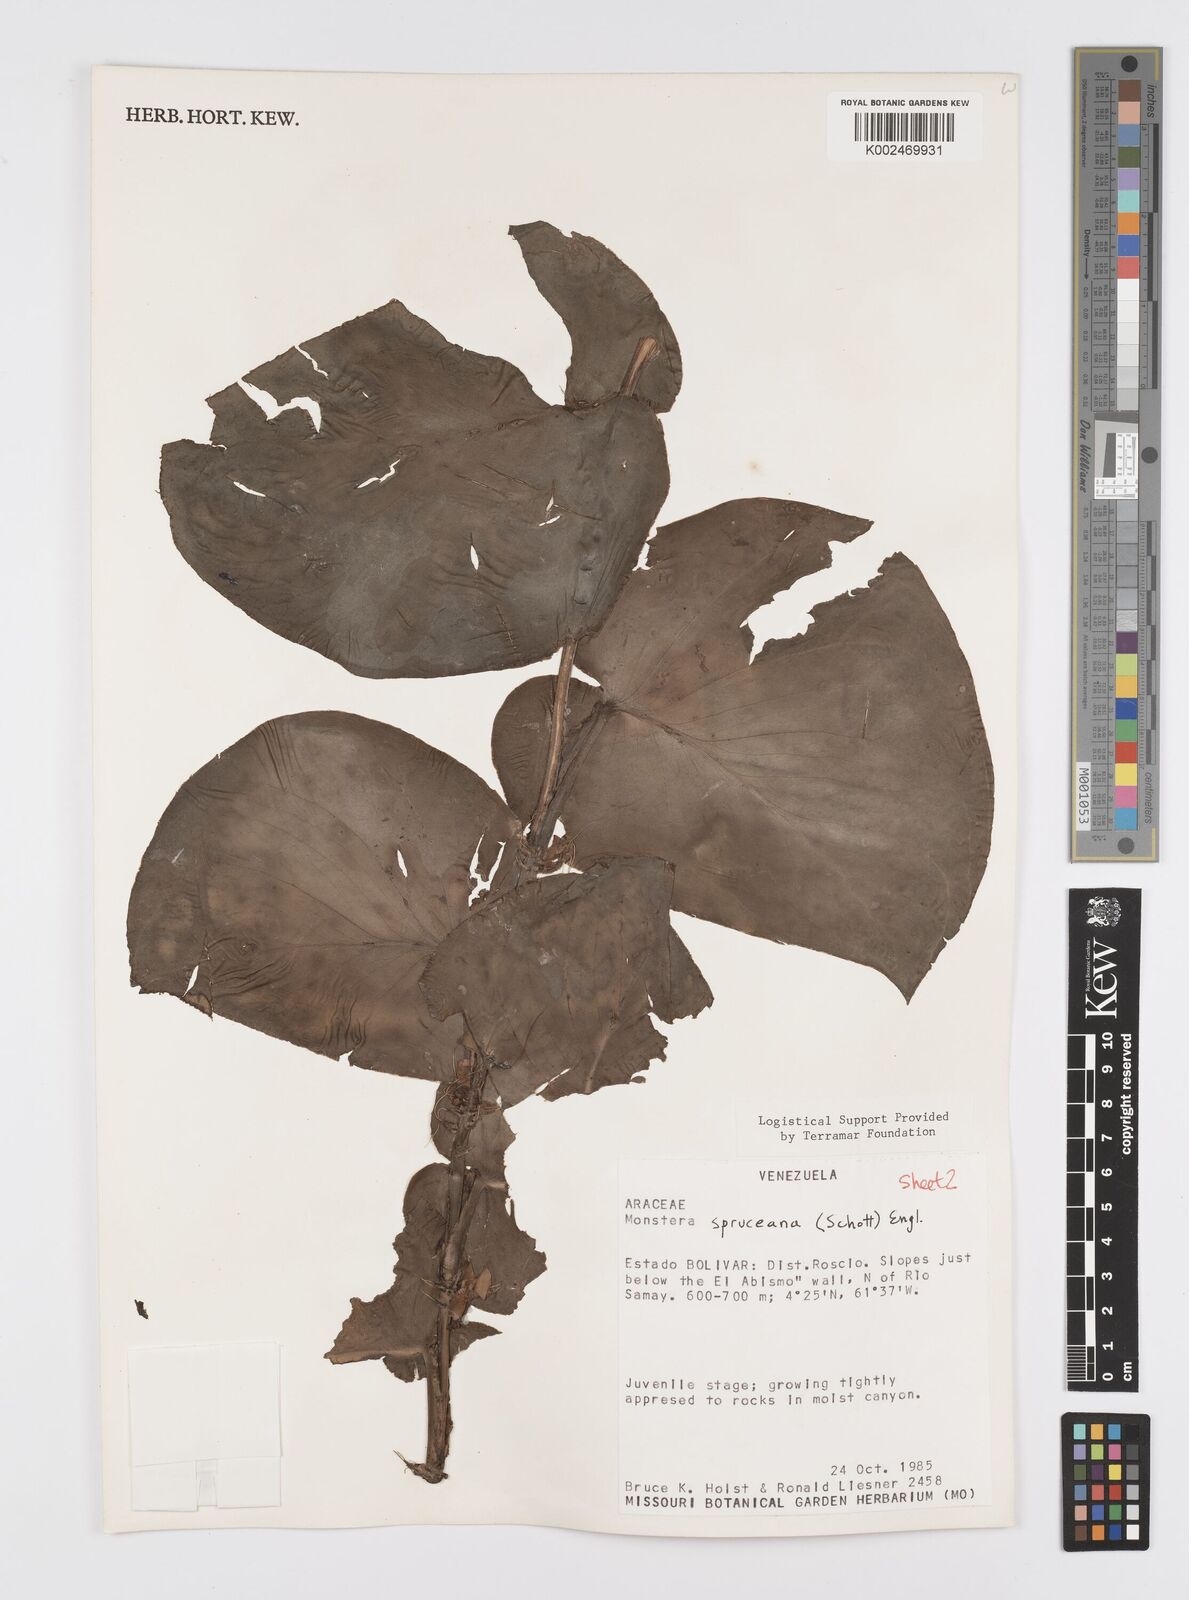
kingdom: Plantae
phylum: Tracheophyta
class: Liliopsida
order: Alismatales
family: Araceae
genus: Monstera
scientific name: Monstera spruceana
